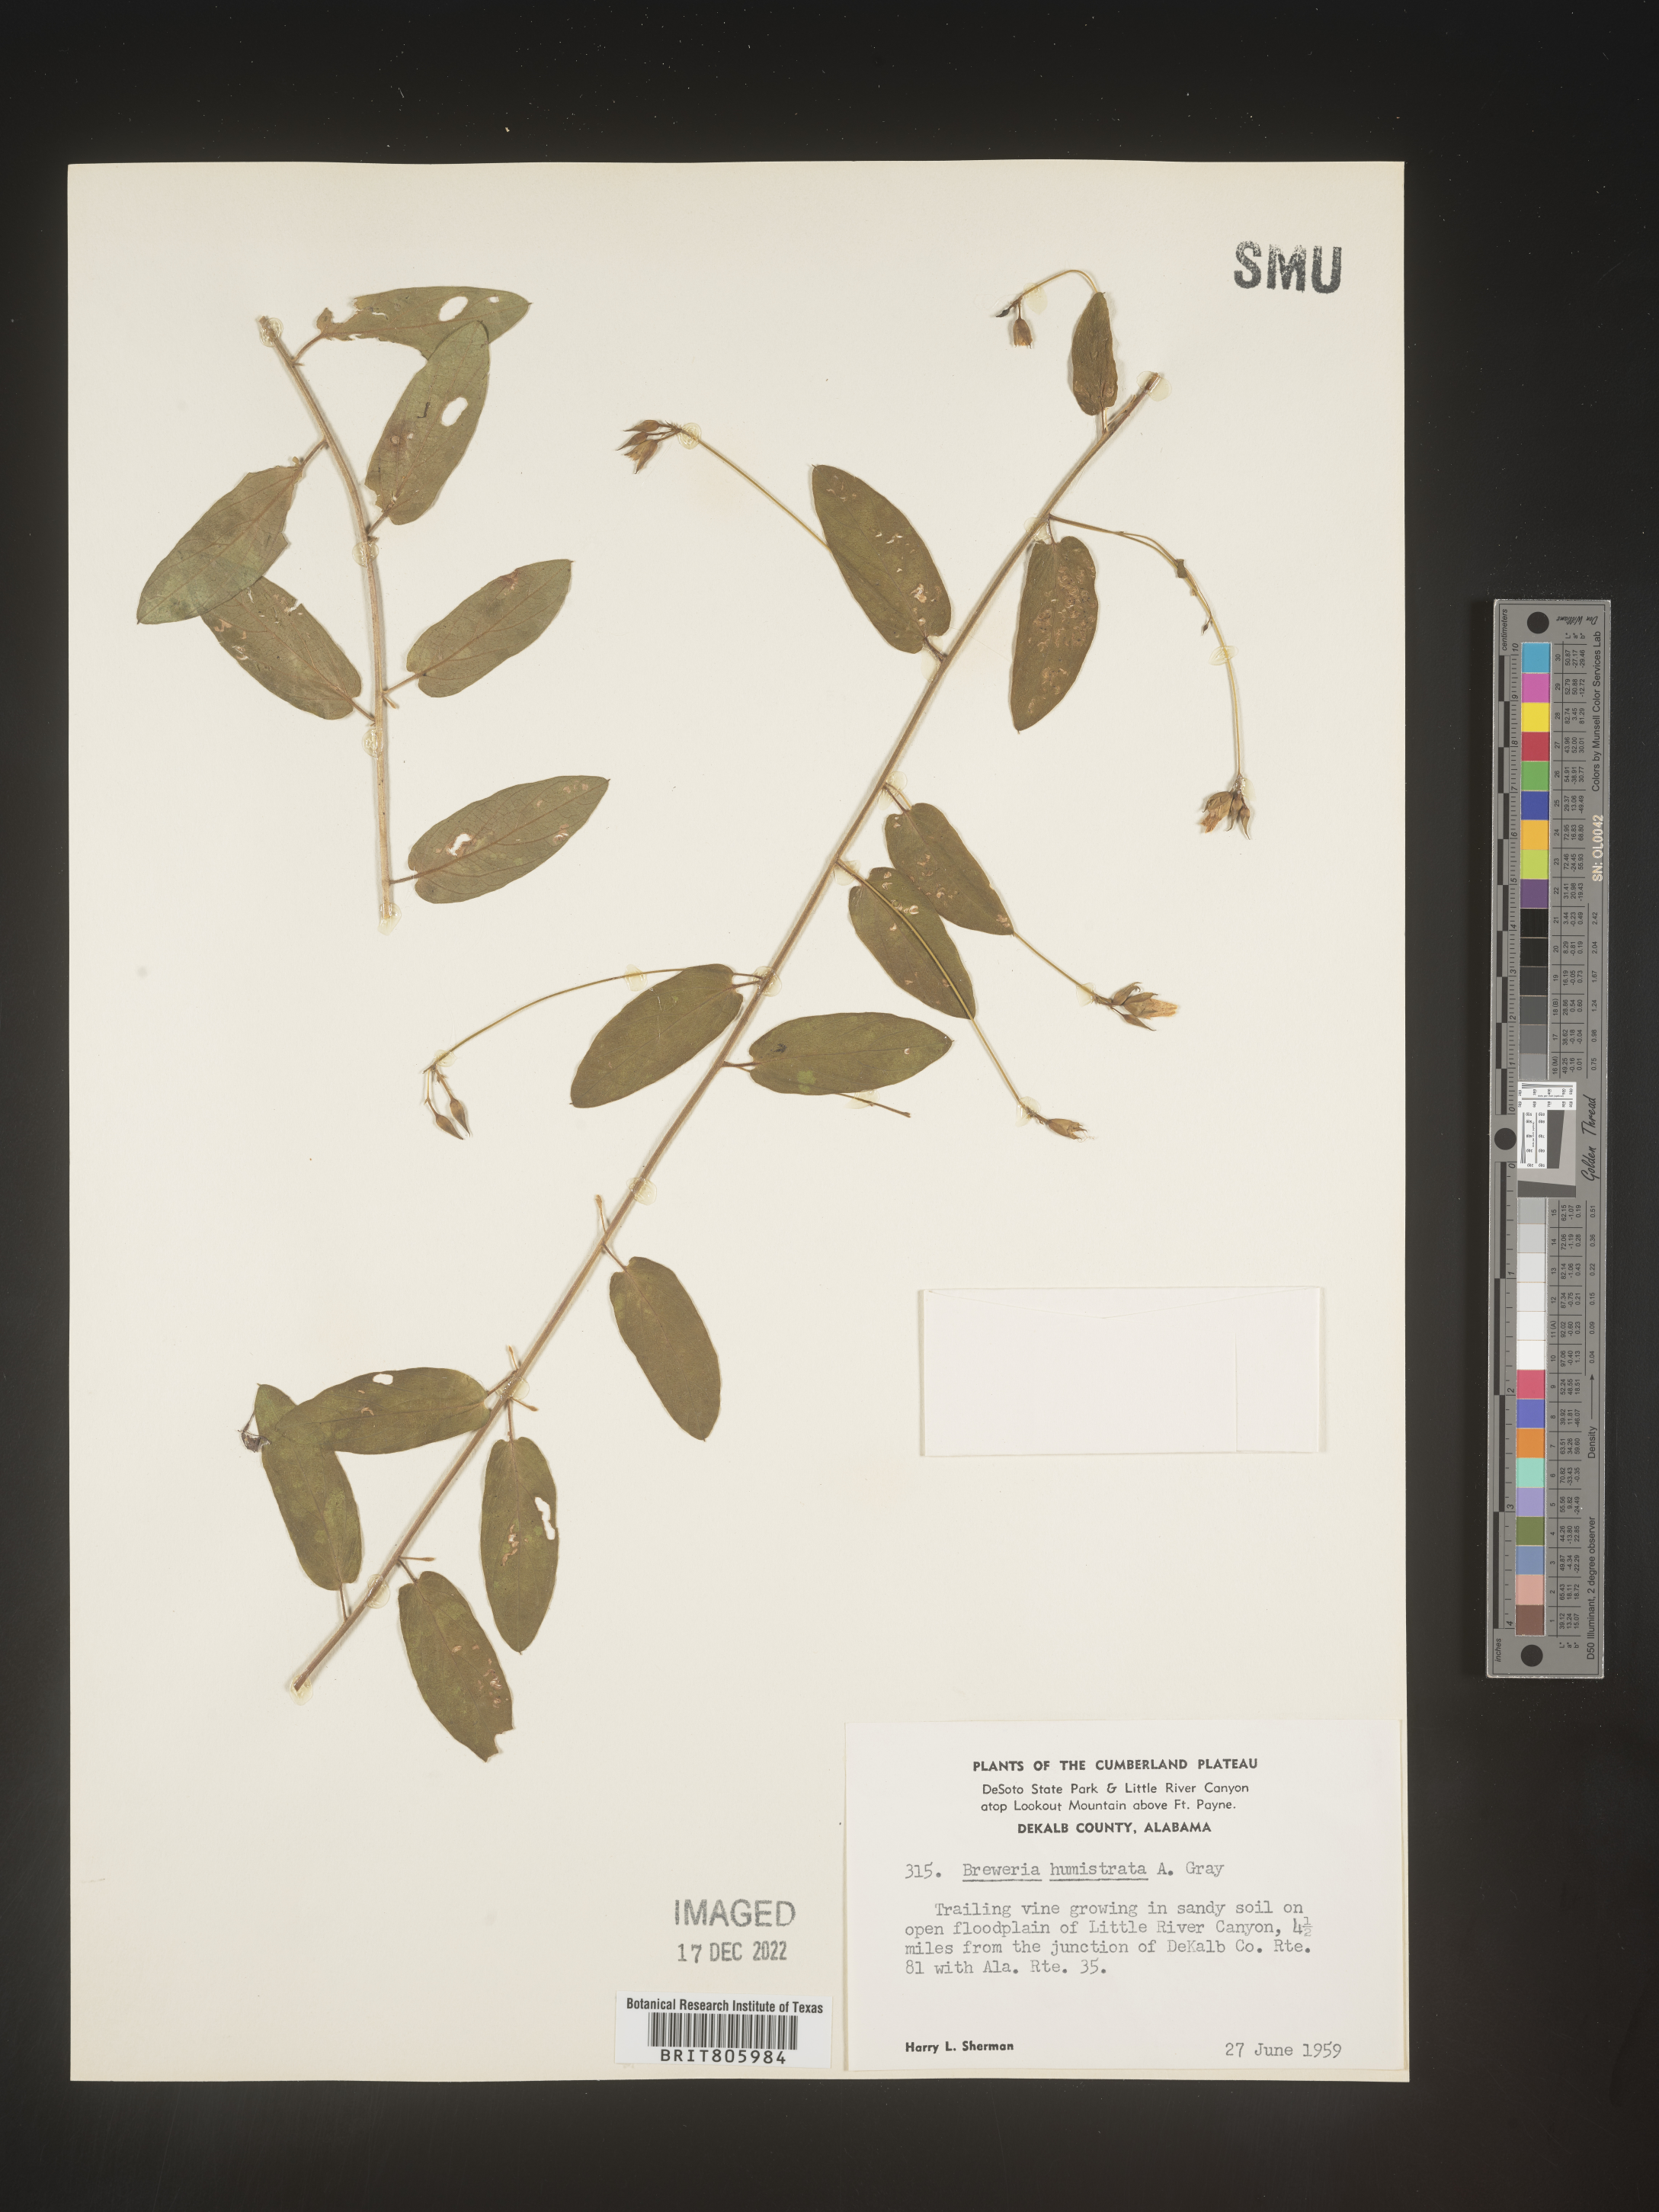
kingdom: Plantae
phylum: Tracheophyta
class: Magnoliopsida
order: Solanales
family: Convolvulaceae
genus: Stylisma
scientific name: Stylisma humistrata
